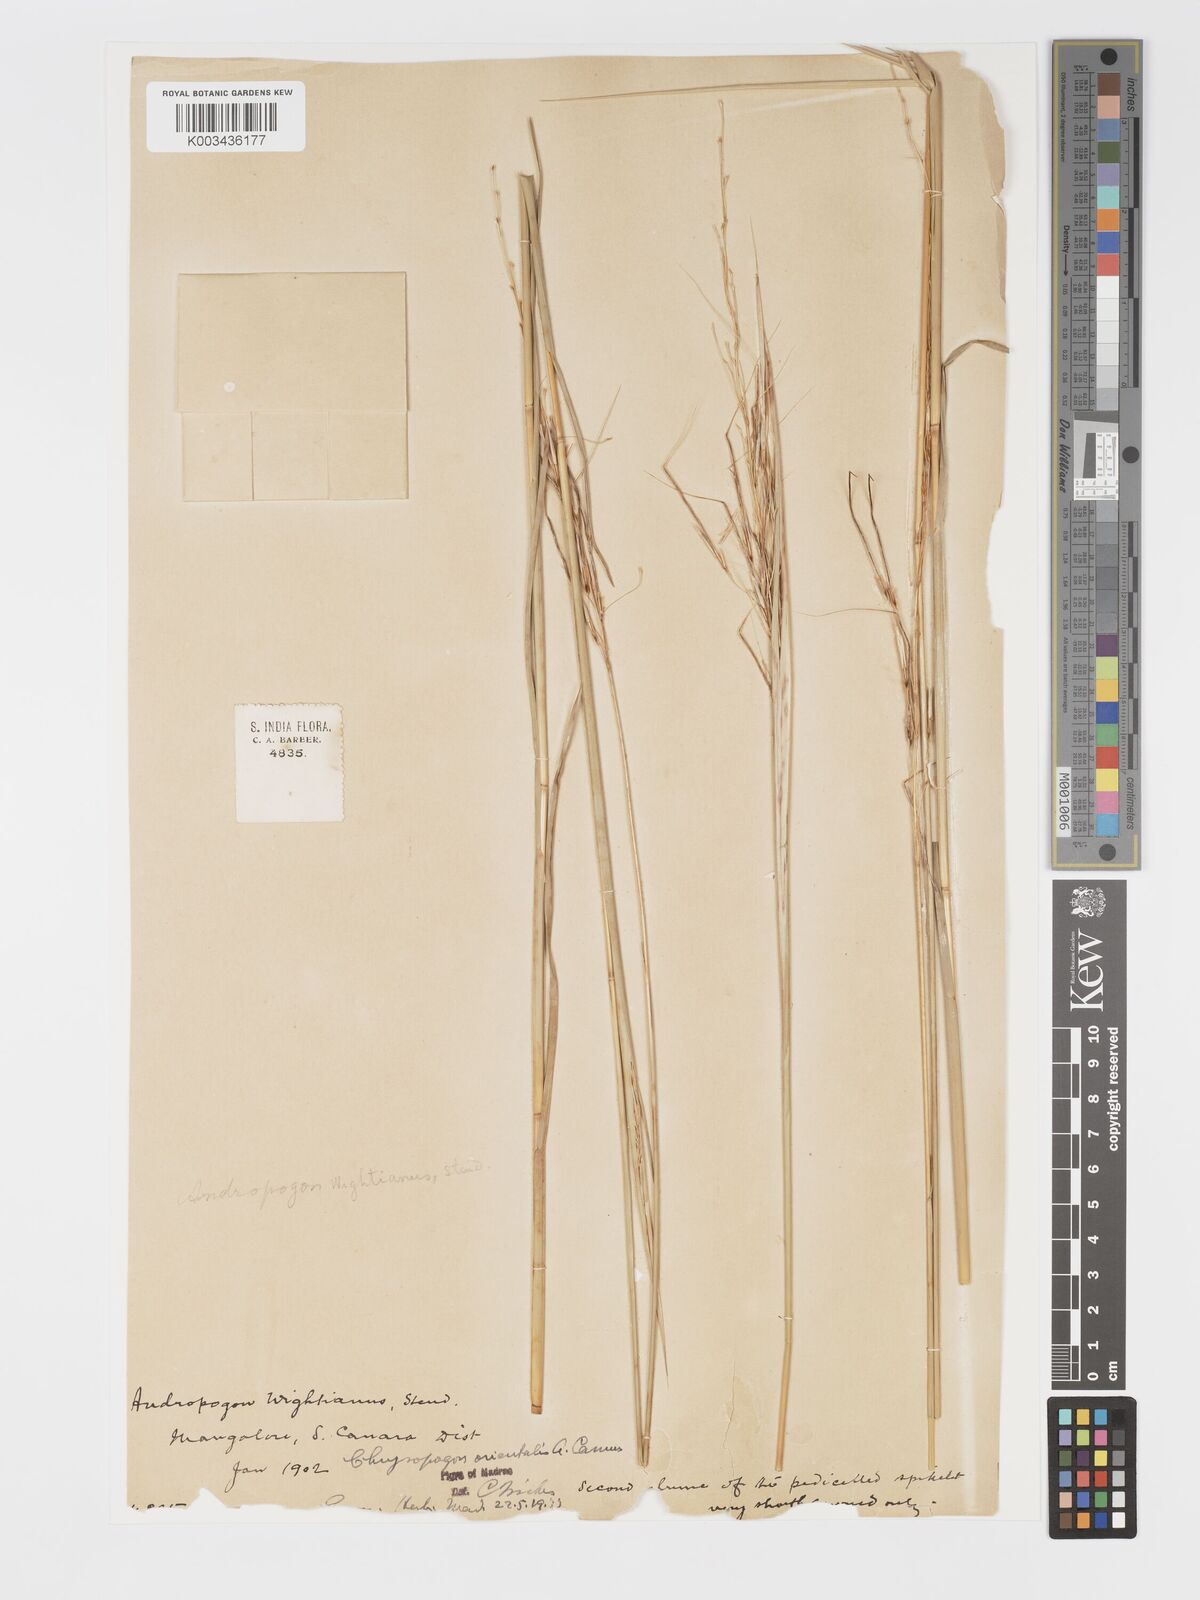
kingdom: Plantae
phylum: Tracheophyta
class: Liliopsida
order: Poales
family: Poaceae
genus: Chrysopogon
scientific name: Chrysopogon orientalis
